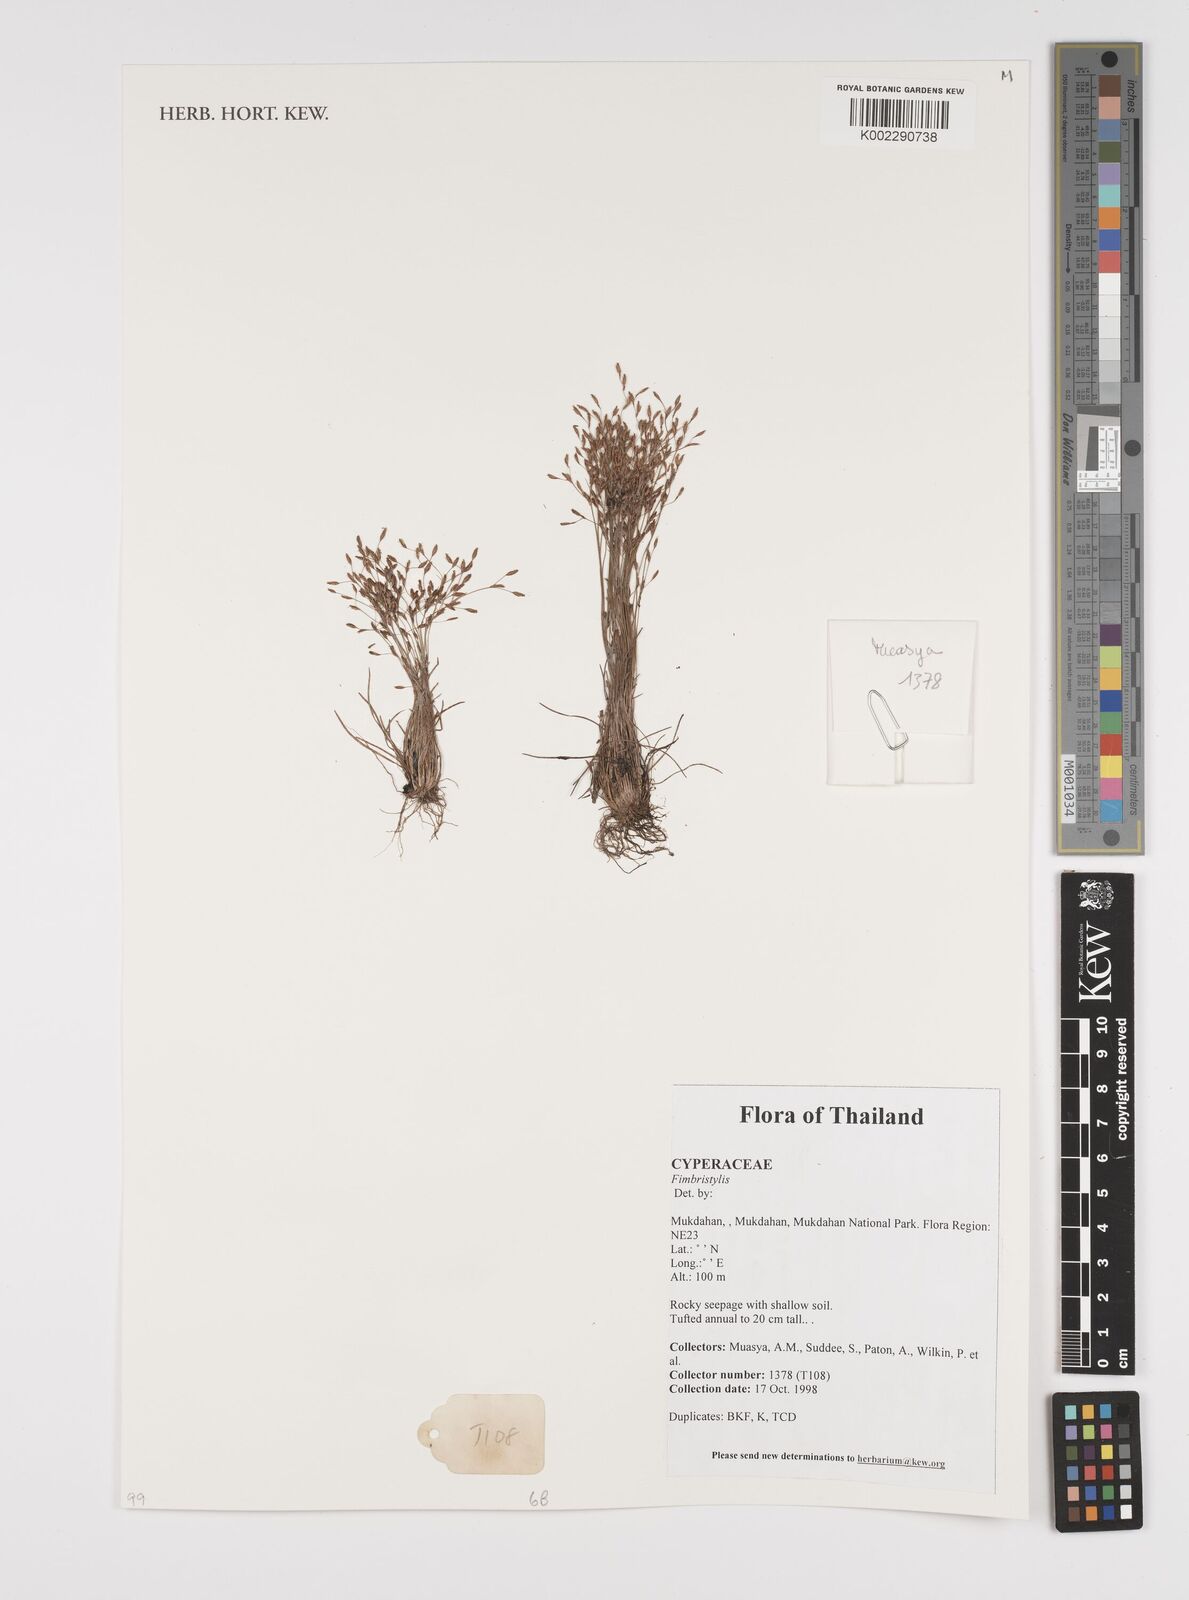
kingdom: Plantae
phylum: Tracheophyta
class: Liliopsida
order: Poales
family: Cyperaceae
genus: Fimbristylis
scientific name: Fimbristylis
